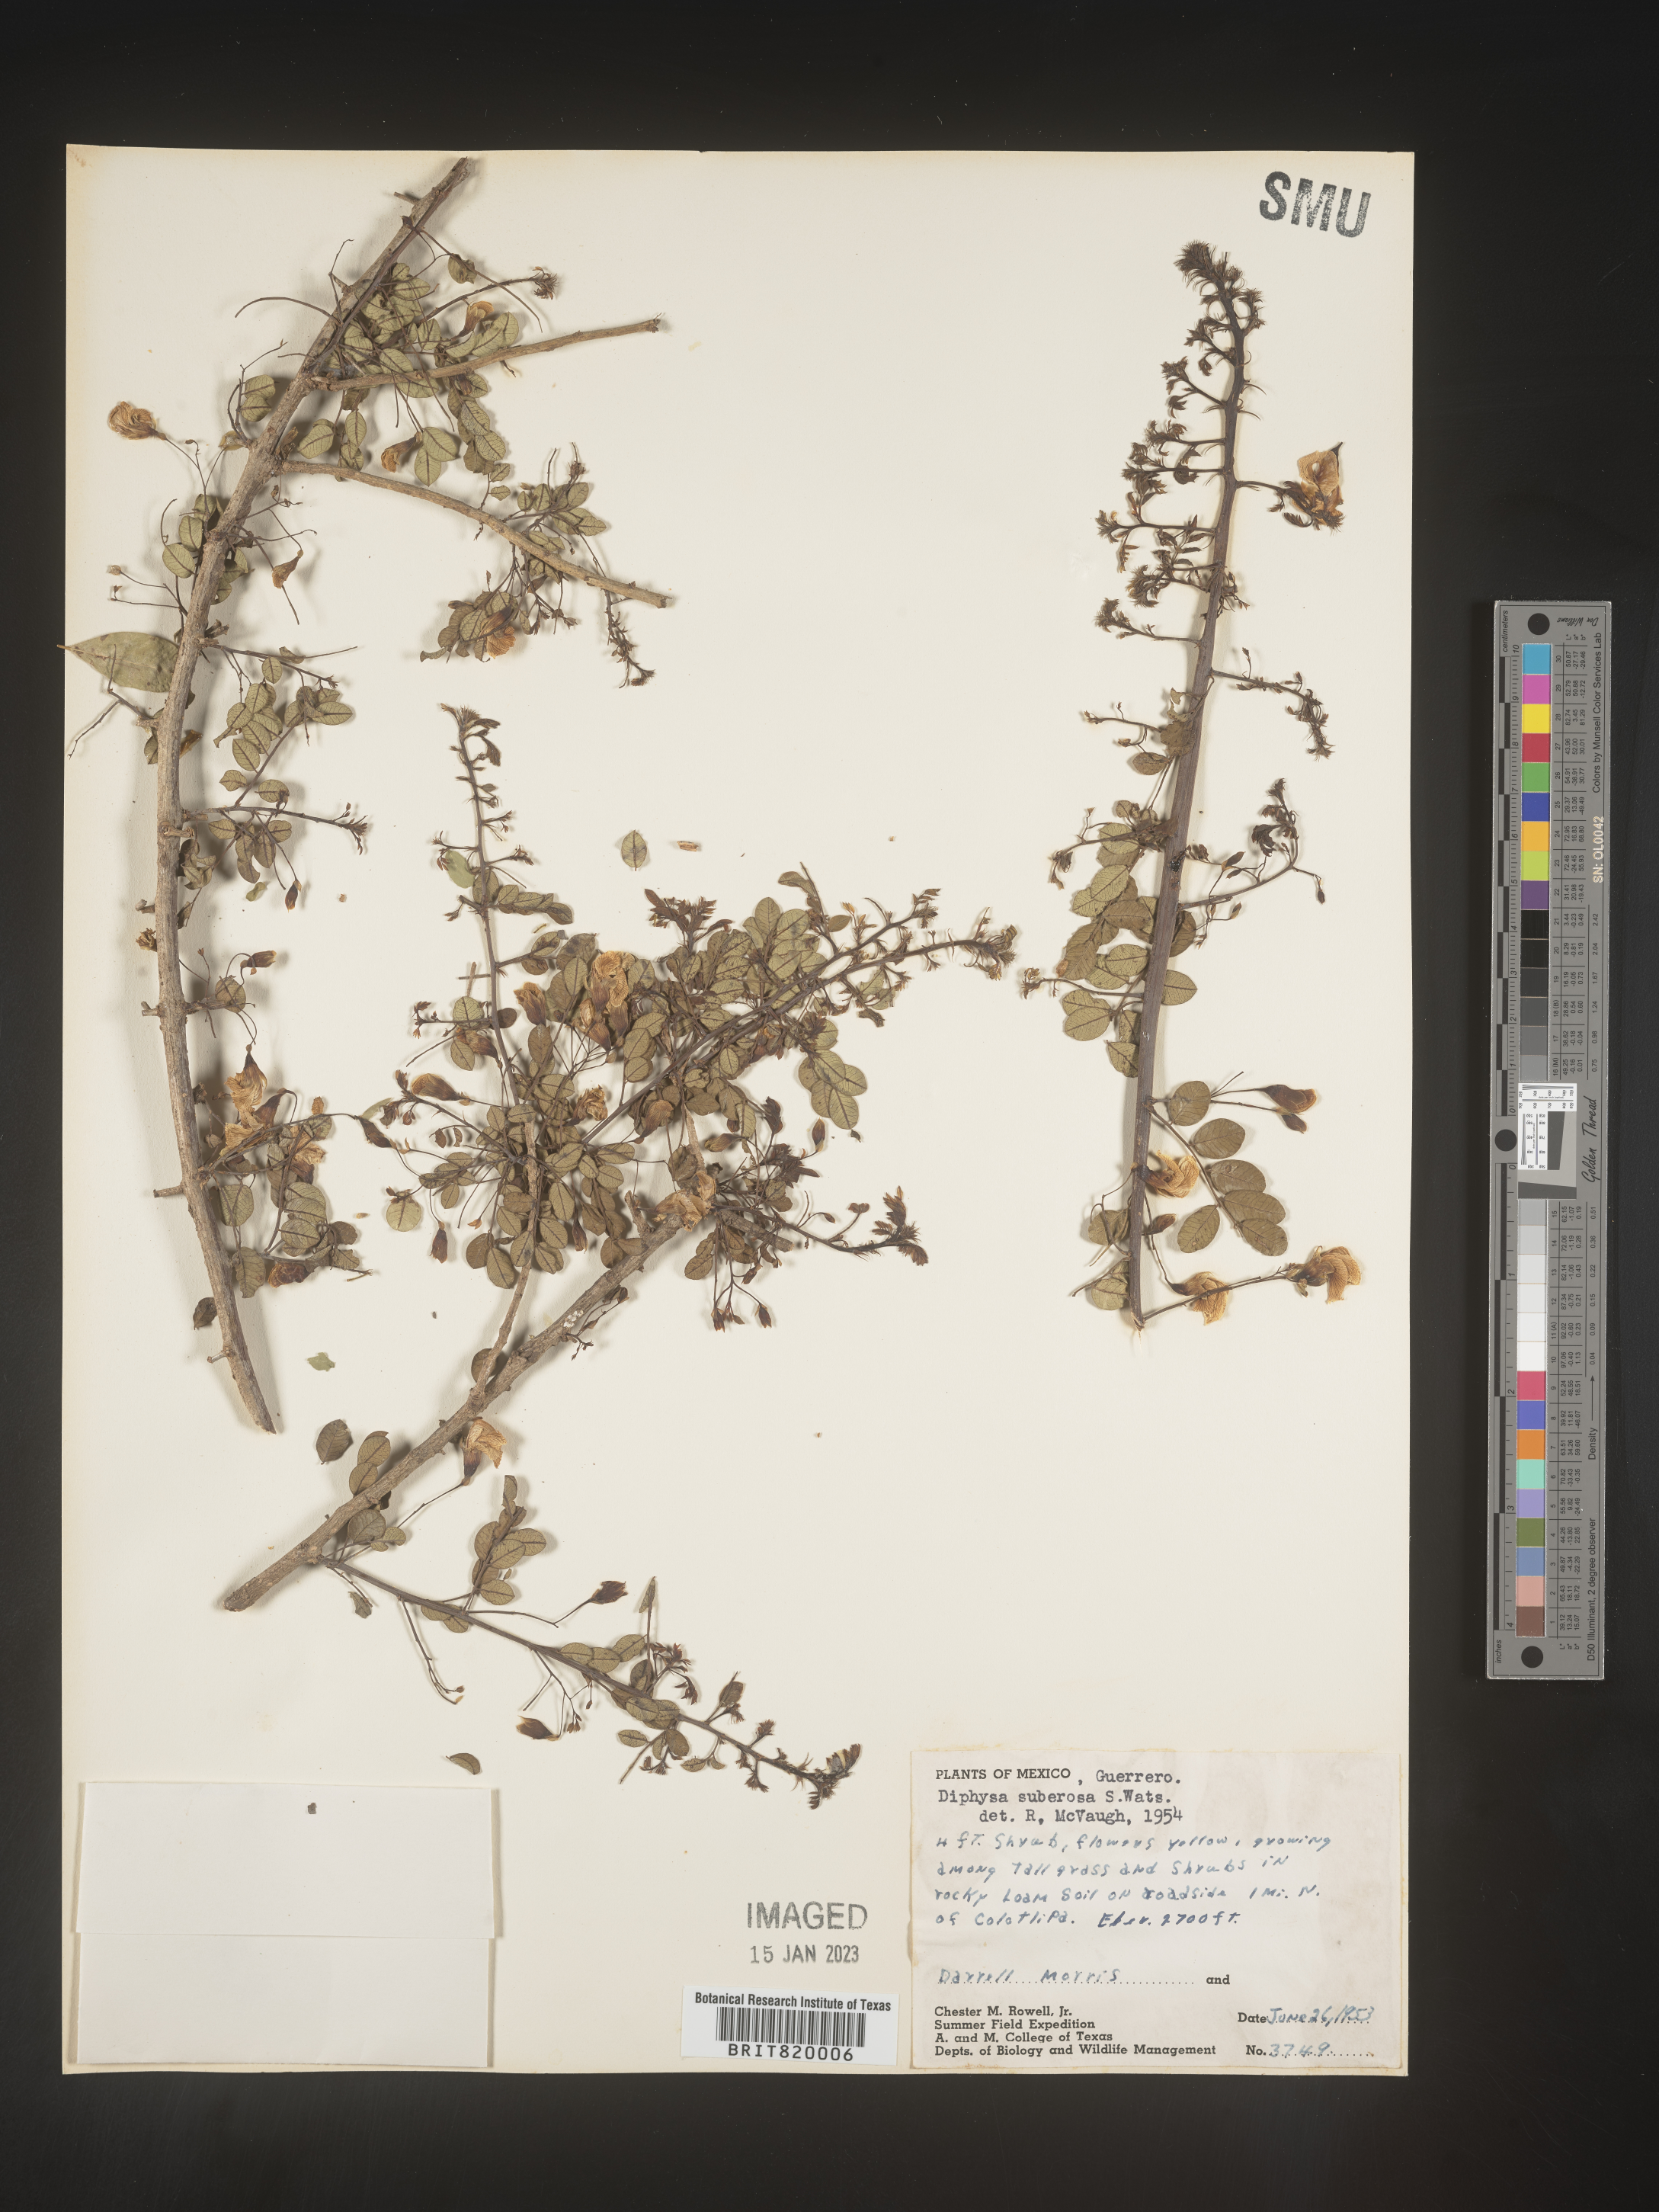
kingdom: Plantae
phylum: Tracheophyta
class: Magnoliopsida
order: Fabales
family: Fabaceae
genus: Diphysa
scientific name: Diphysa
